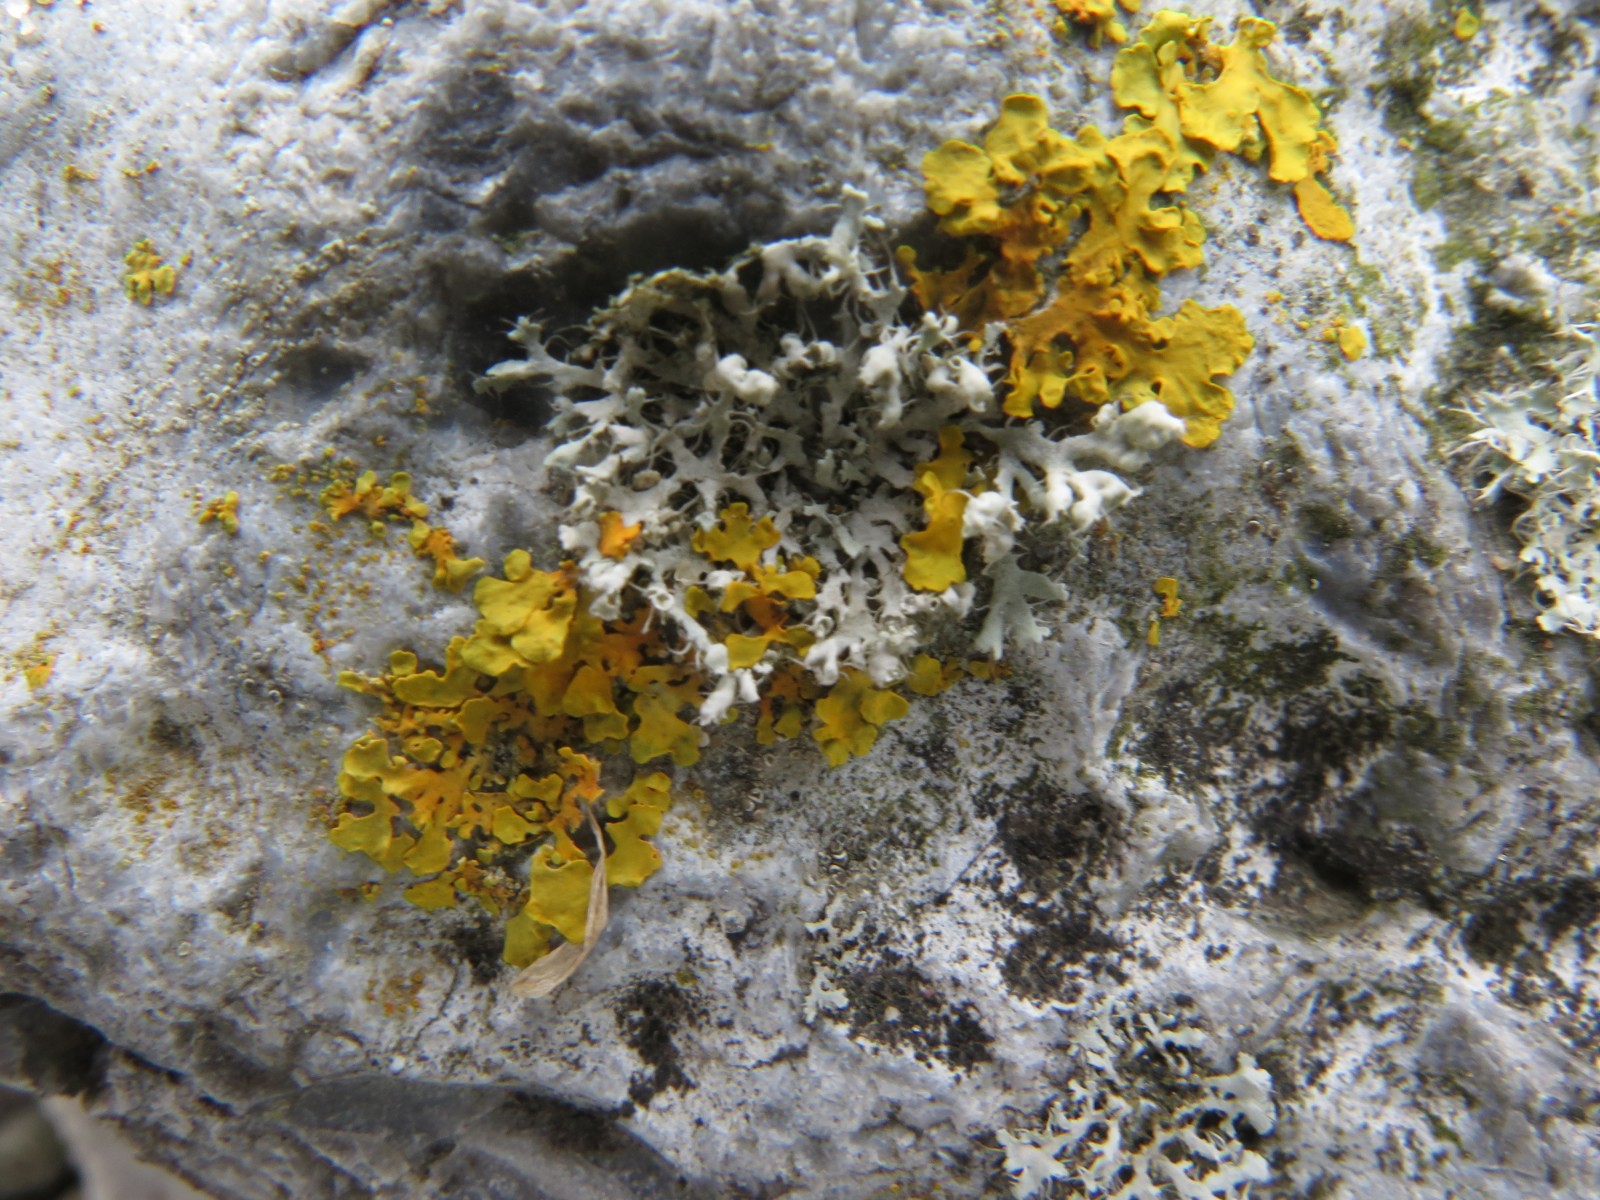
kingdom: Fungi
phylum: Ascomycota
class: Lecanoromycetes
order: Caliciales
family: Physciaceae
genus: Physcia
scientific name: Physcia adscendens
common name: hætte-rosetlav
